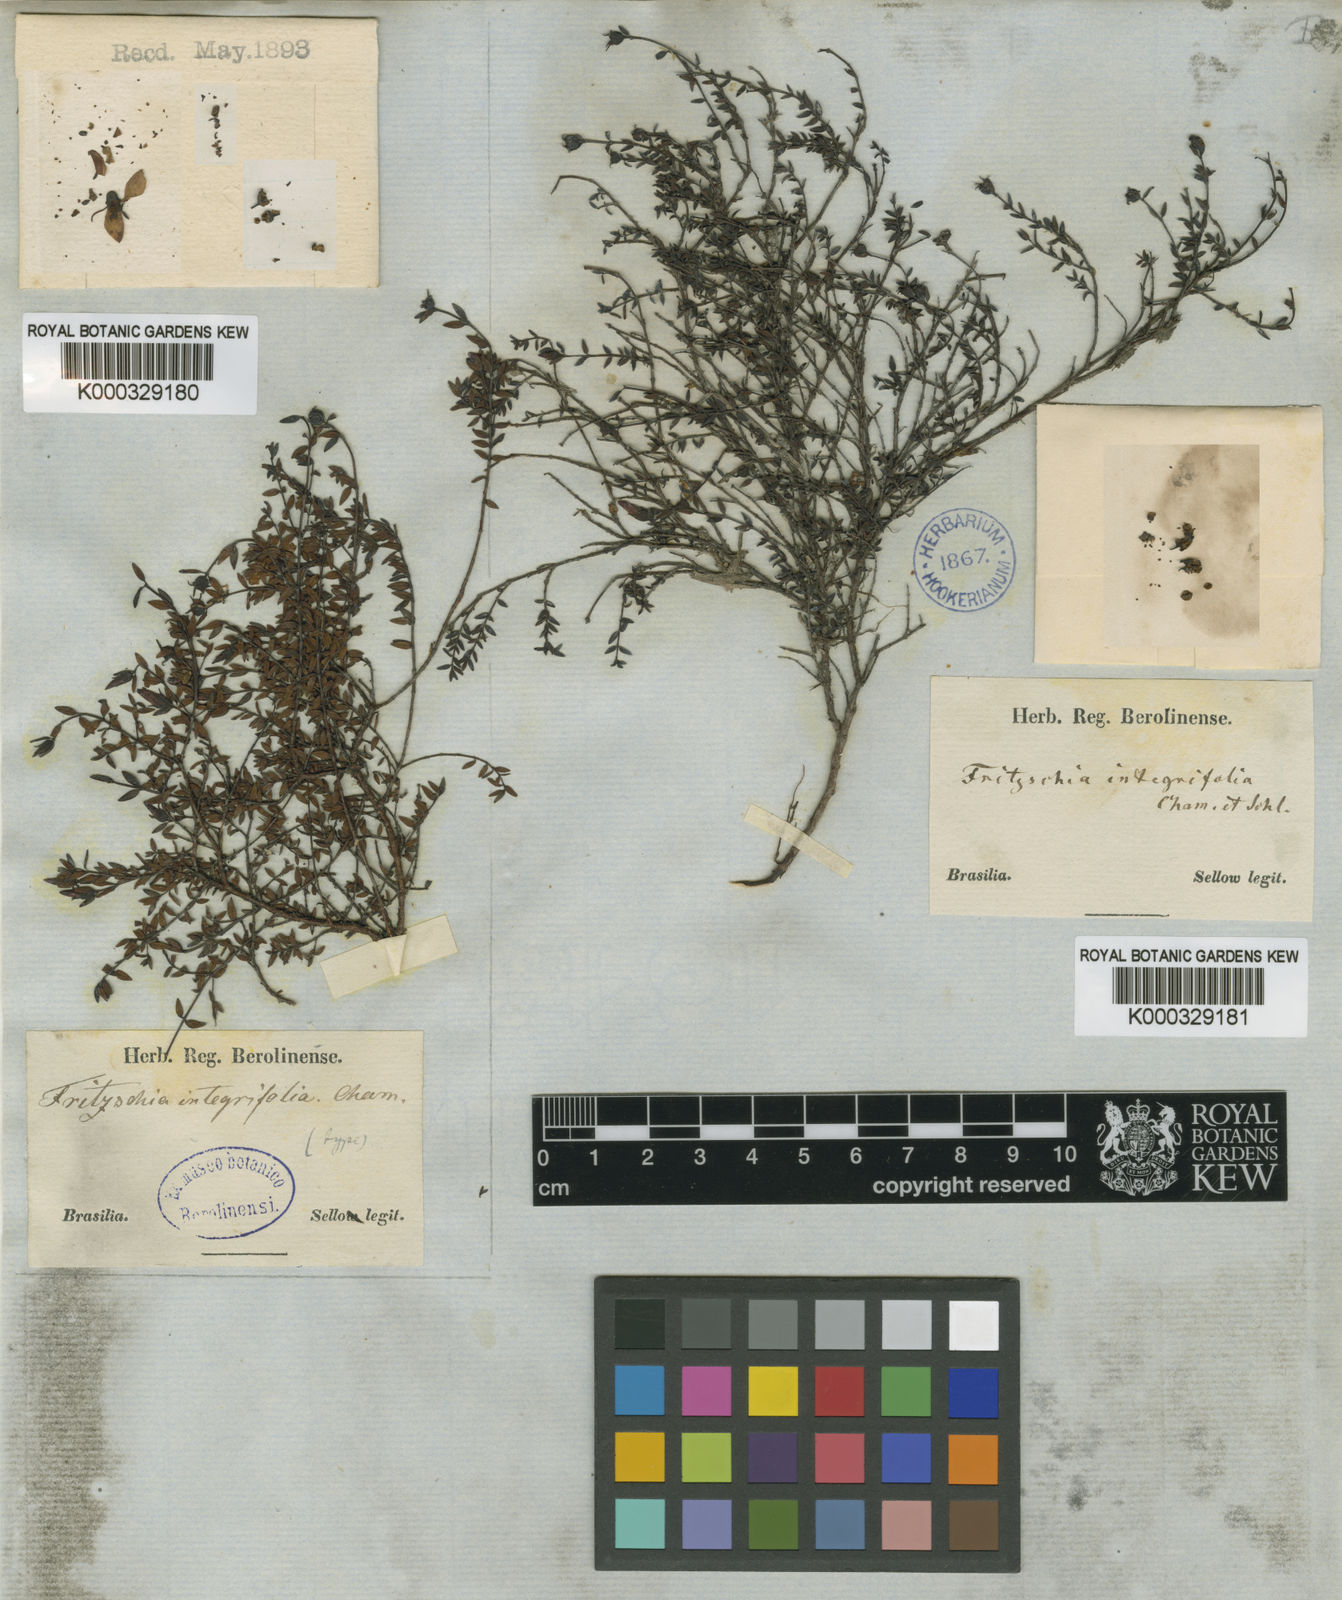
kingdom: Plantae
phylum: Tracheophyta
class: Magnoliopsida
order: Myrtales
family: Melastomataceae
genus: Fritzschia
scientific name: Fritzschia integrifolia
